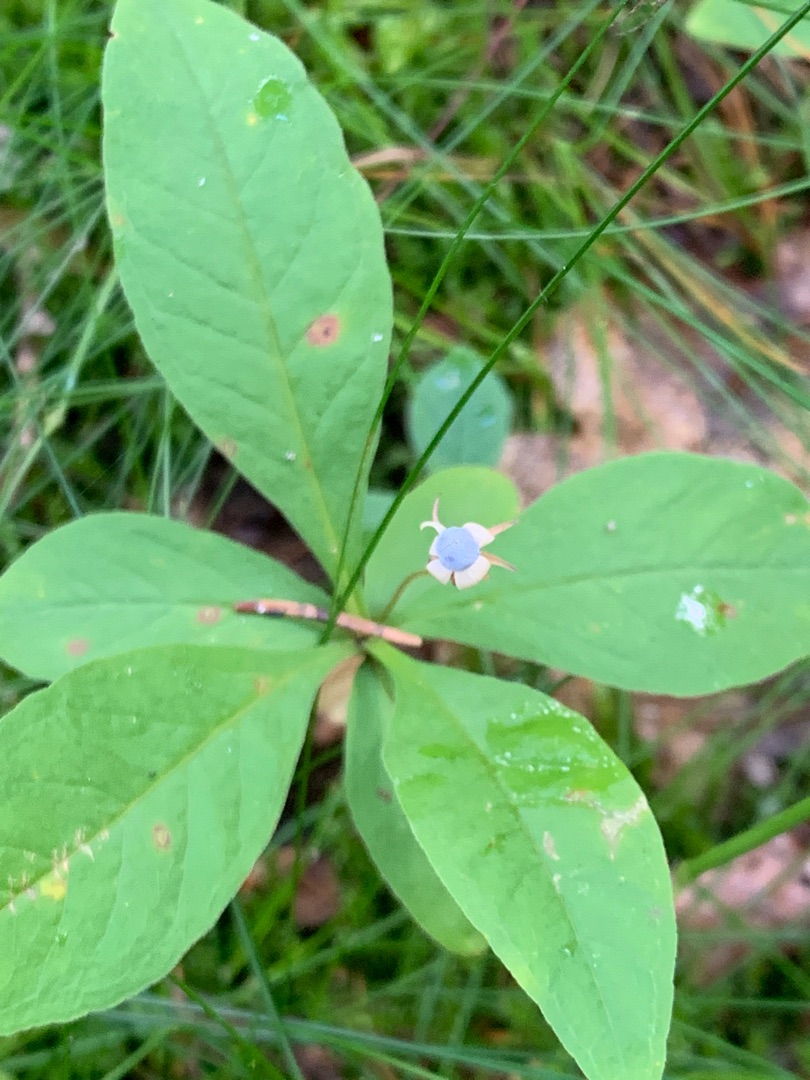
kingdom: Plantae
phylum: Tracheophyta
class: Magnoliopsida
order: Ericales
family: Primulaceae
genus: Lysimachia
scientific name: Lysimachia europaea
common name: Skovstjerne
